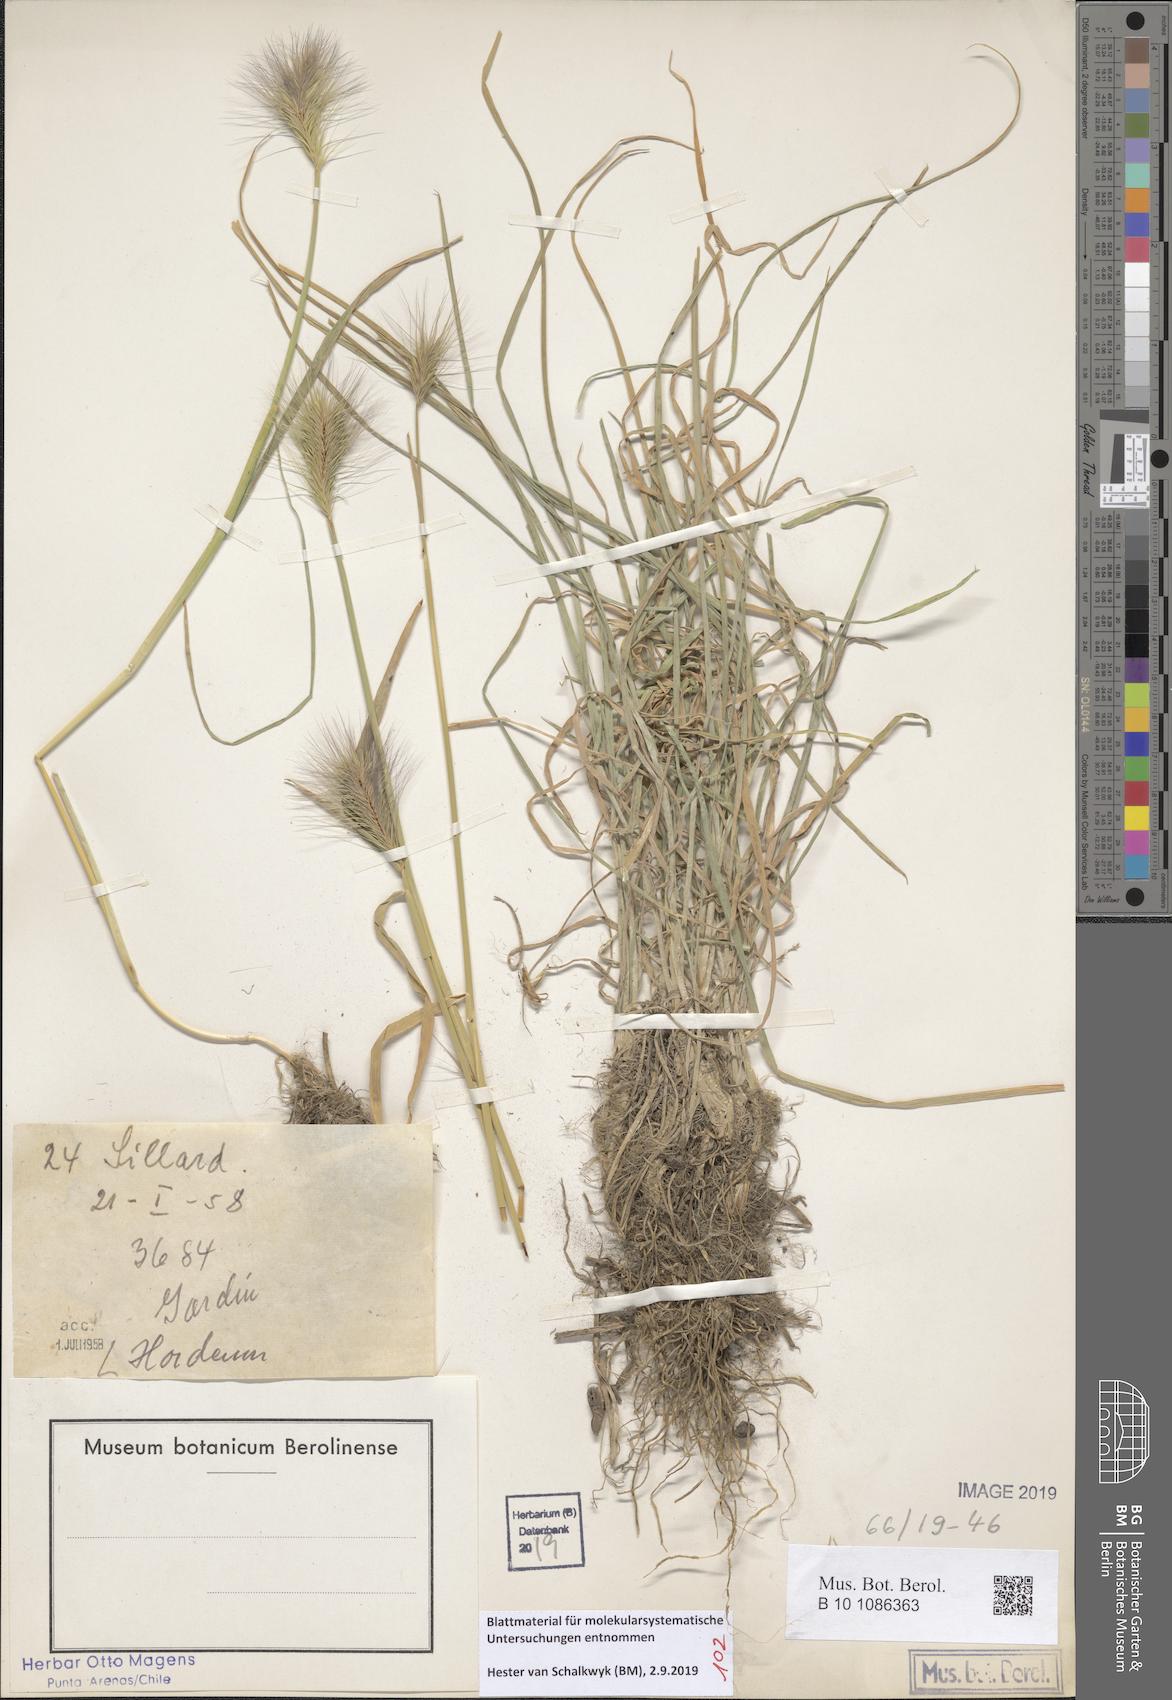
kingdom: Plantae
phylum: Tracheophyta
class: Liliopsida
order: Poales
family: Poaceae
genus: Hordeum
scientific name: Hordeum
